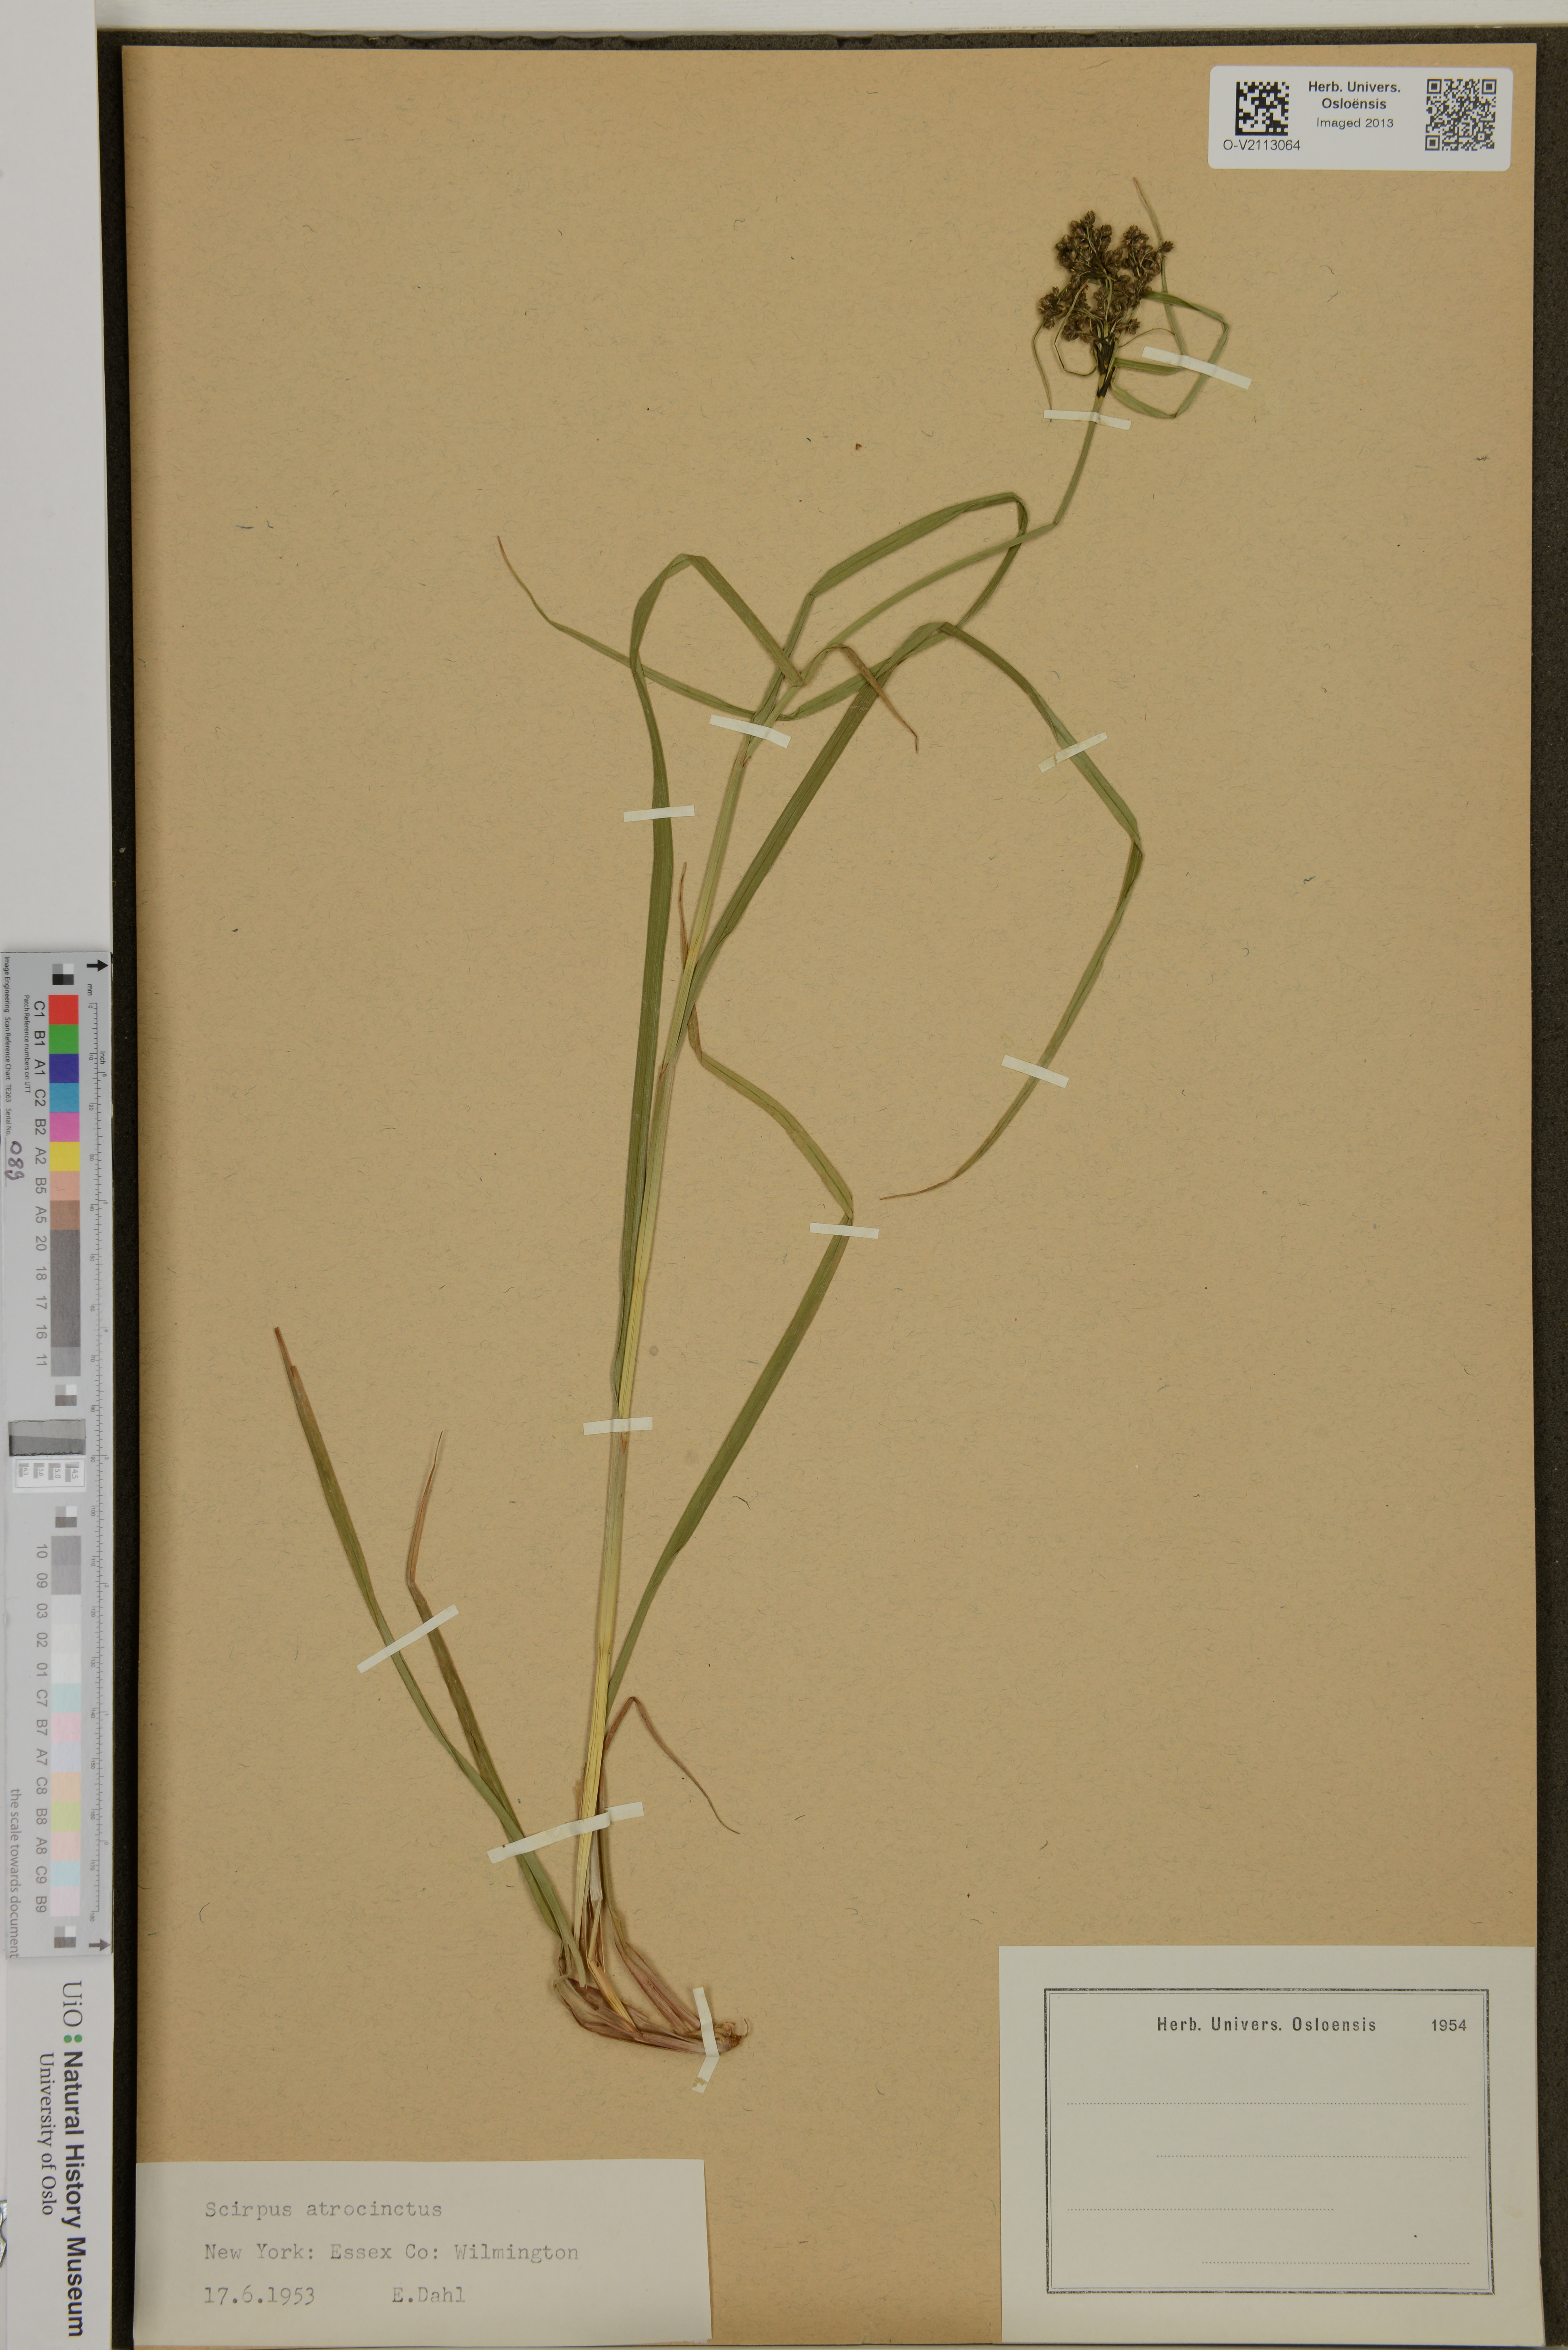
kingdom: Plantae
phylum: Tracheophyta
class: Liliopsida
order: Poales
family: Cyperaceae
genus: Scirpus
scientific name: Scirpus atrocinctus
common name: Black-girdled bulrush
